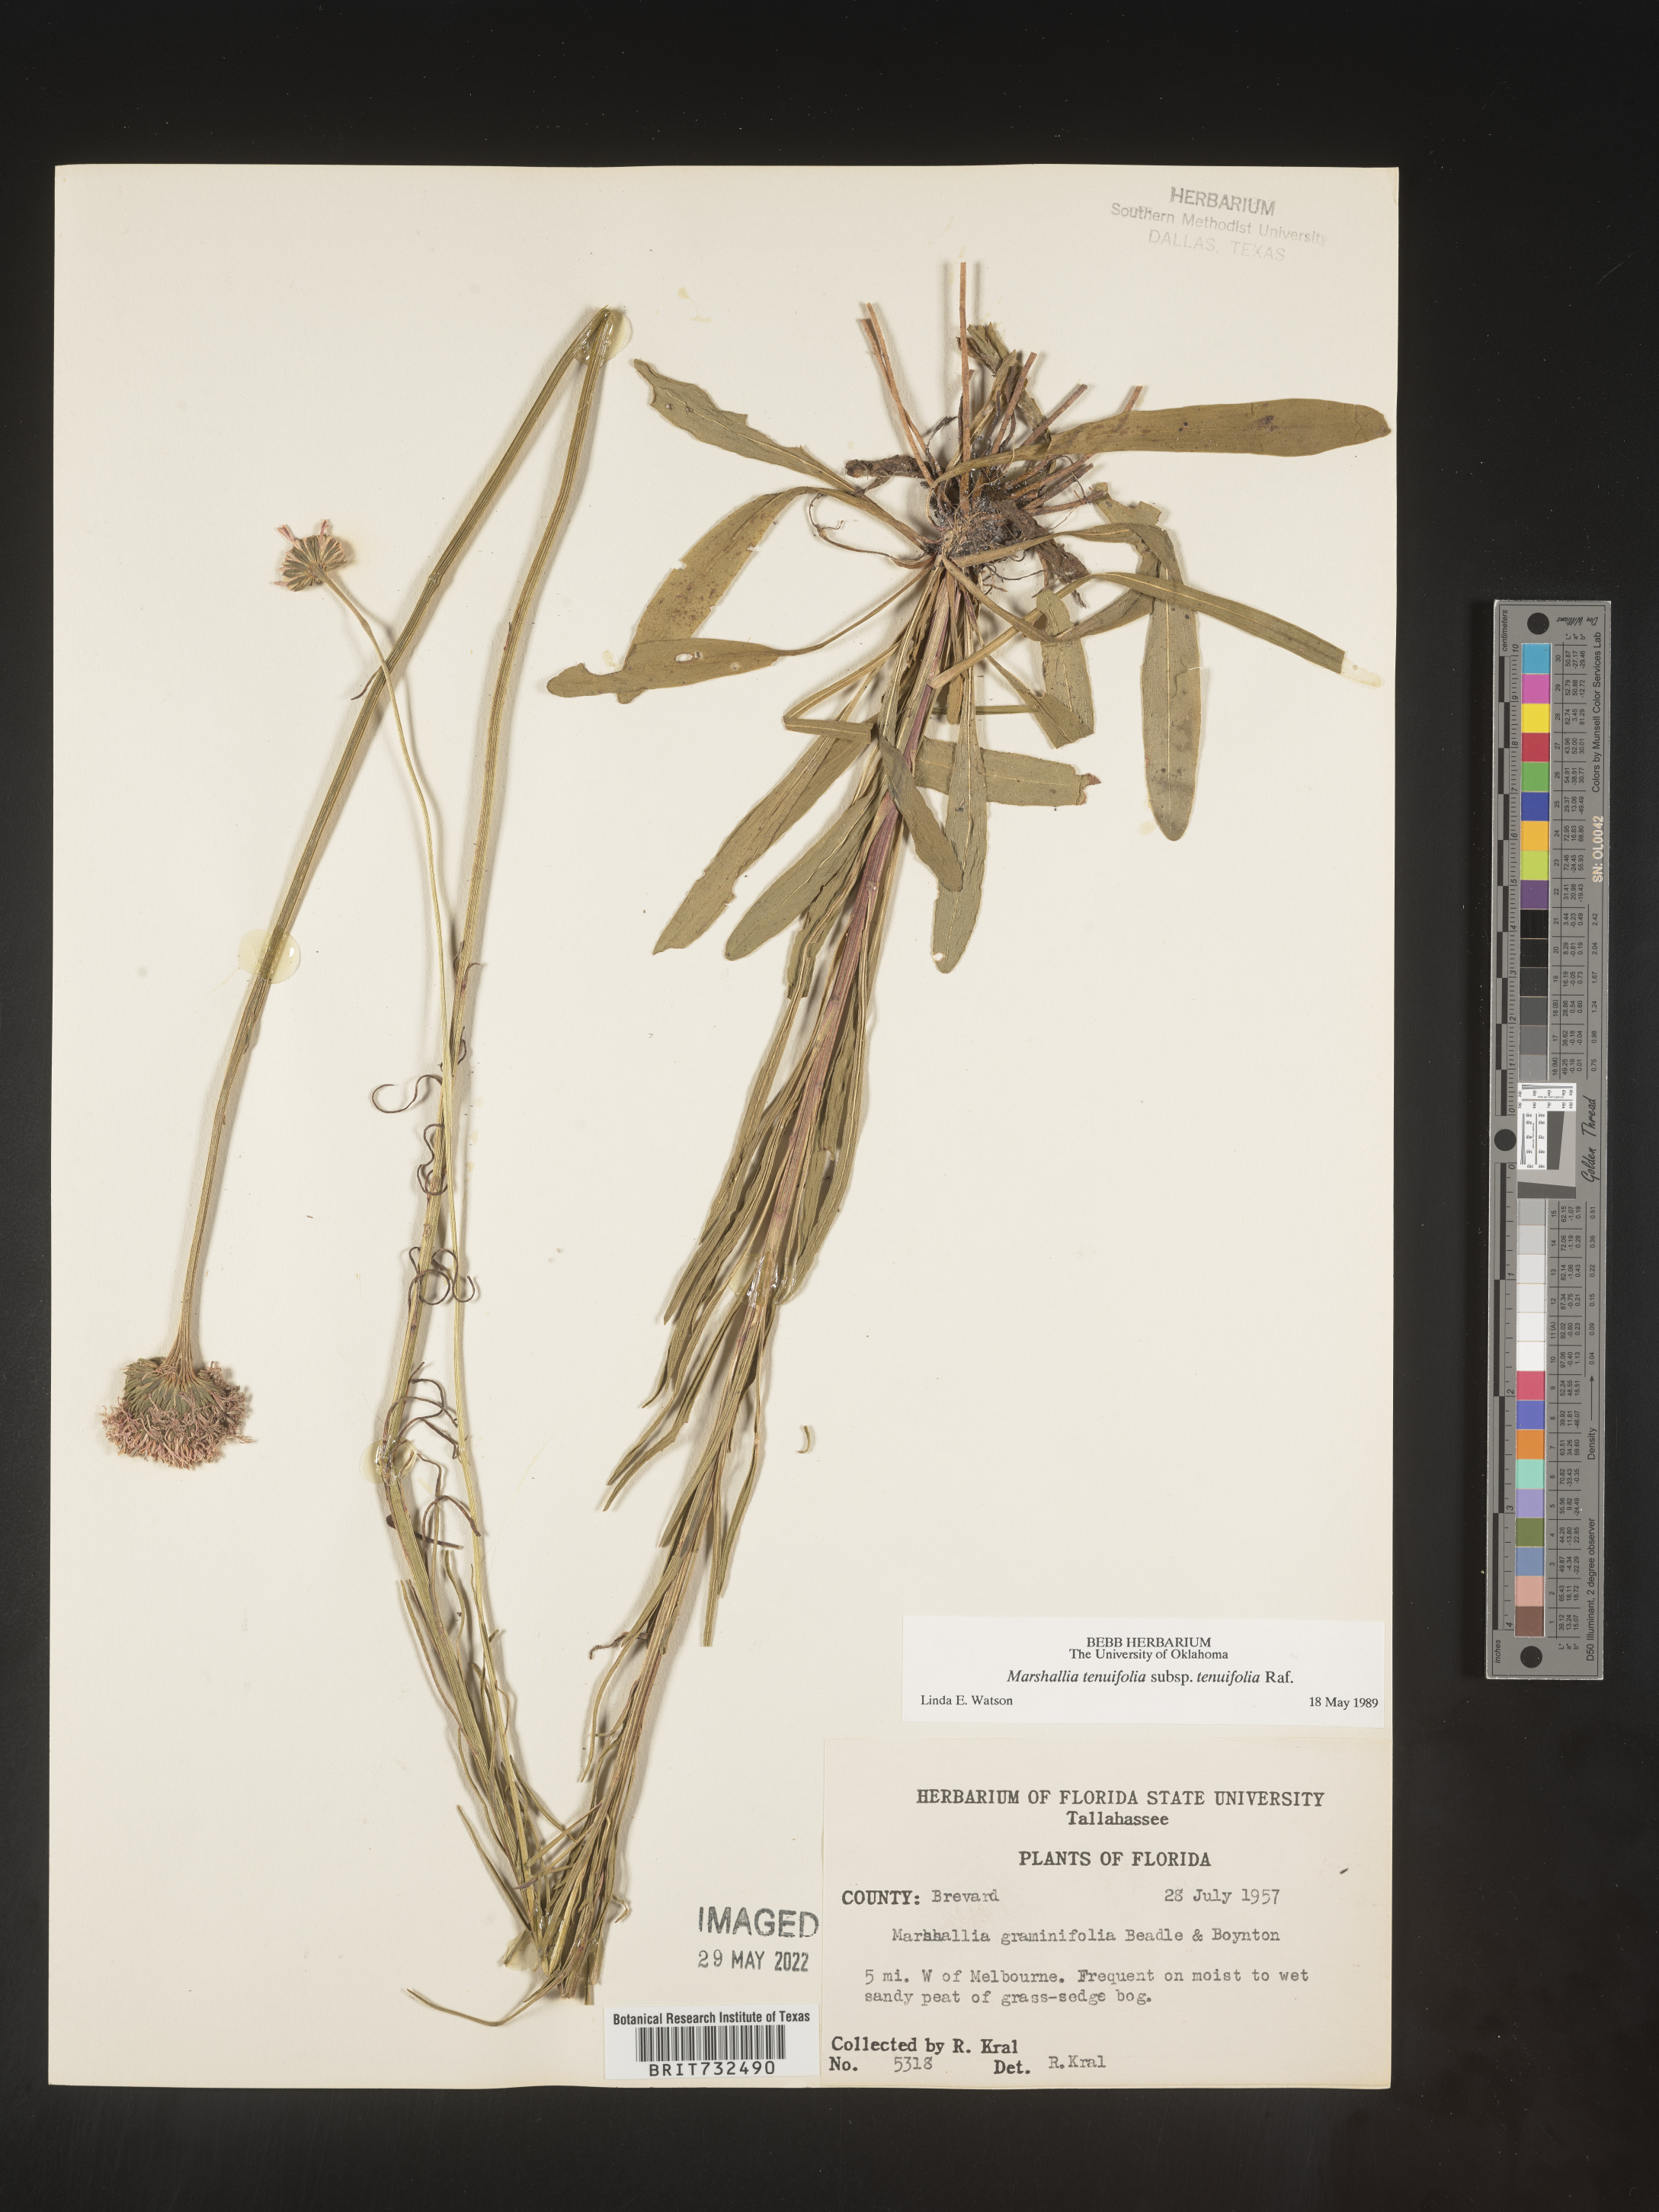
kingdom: Plantae
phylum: Tracheophyta
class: Magnoliopsida
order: Asterales
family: Asteraceae
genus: Vernonia
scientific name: Vernonia angustifolia
